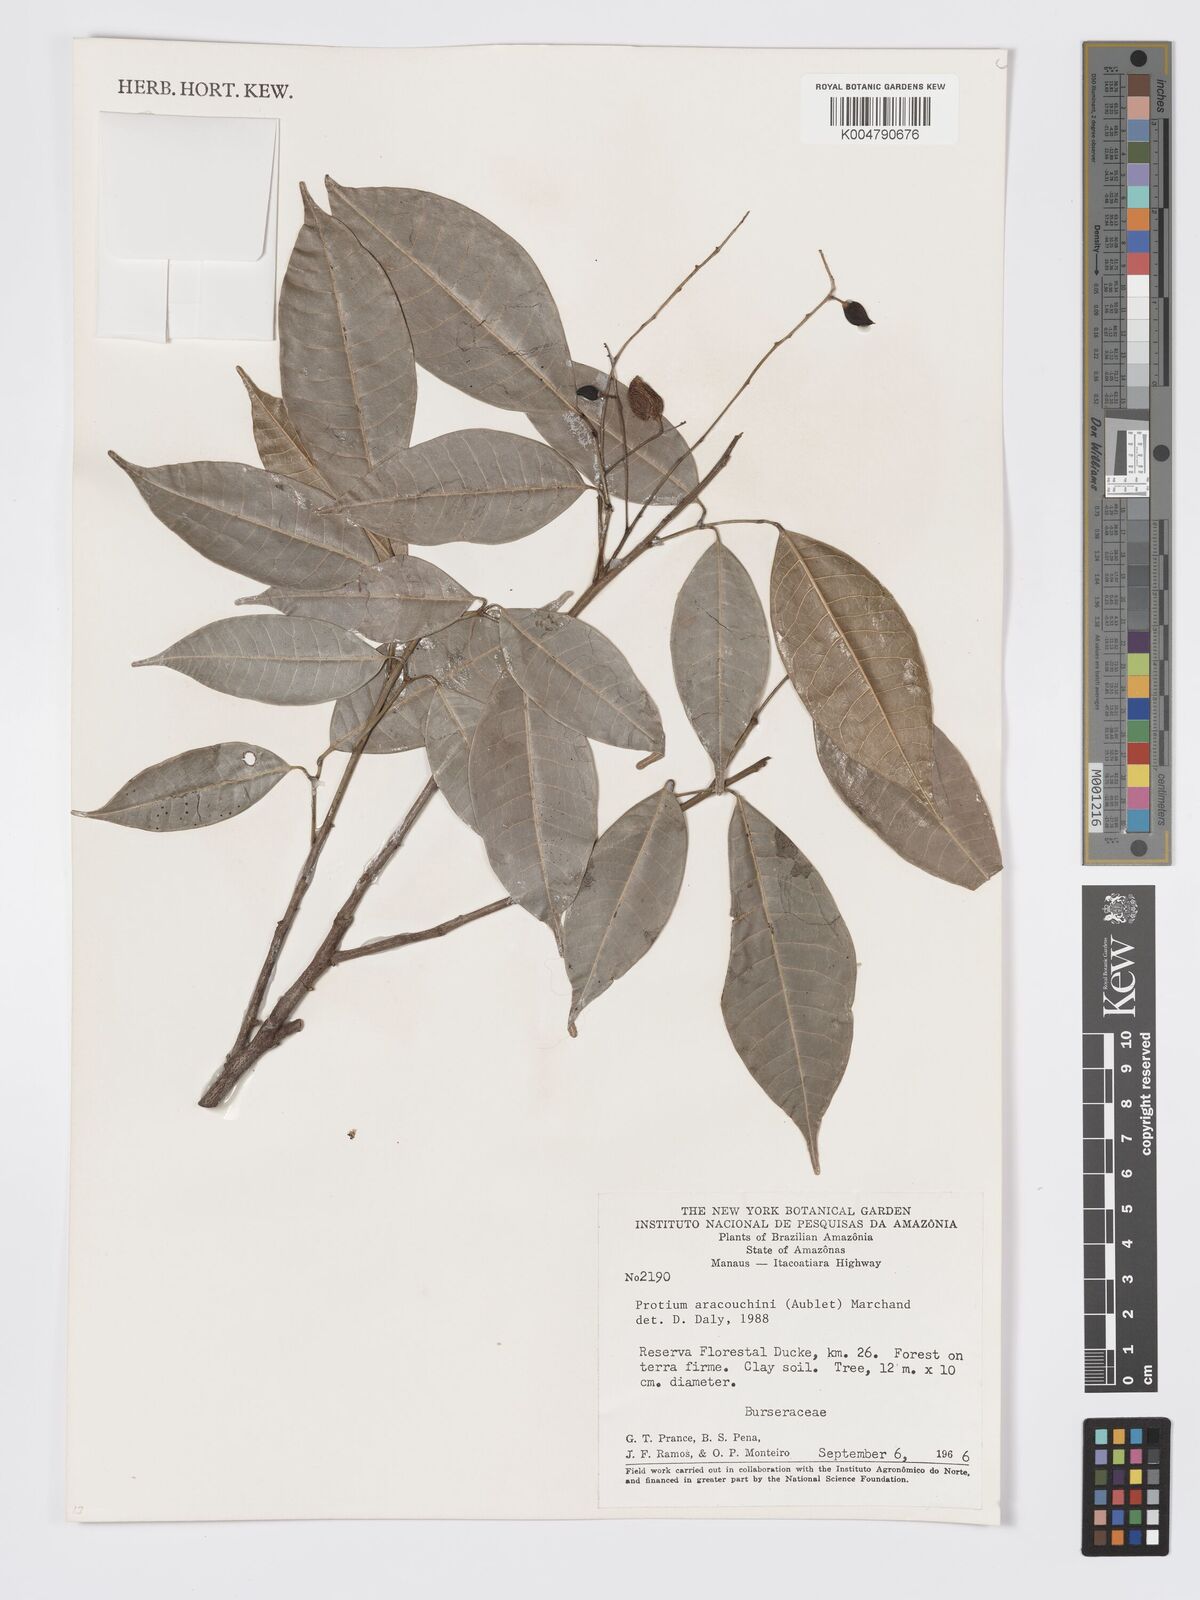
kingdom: Plantae
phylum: Tracheophyta
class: Magnoliopsida
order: Sapindales
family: Burseraceae
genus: Protium
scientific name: Protium aracouchini
